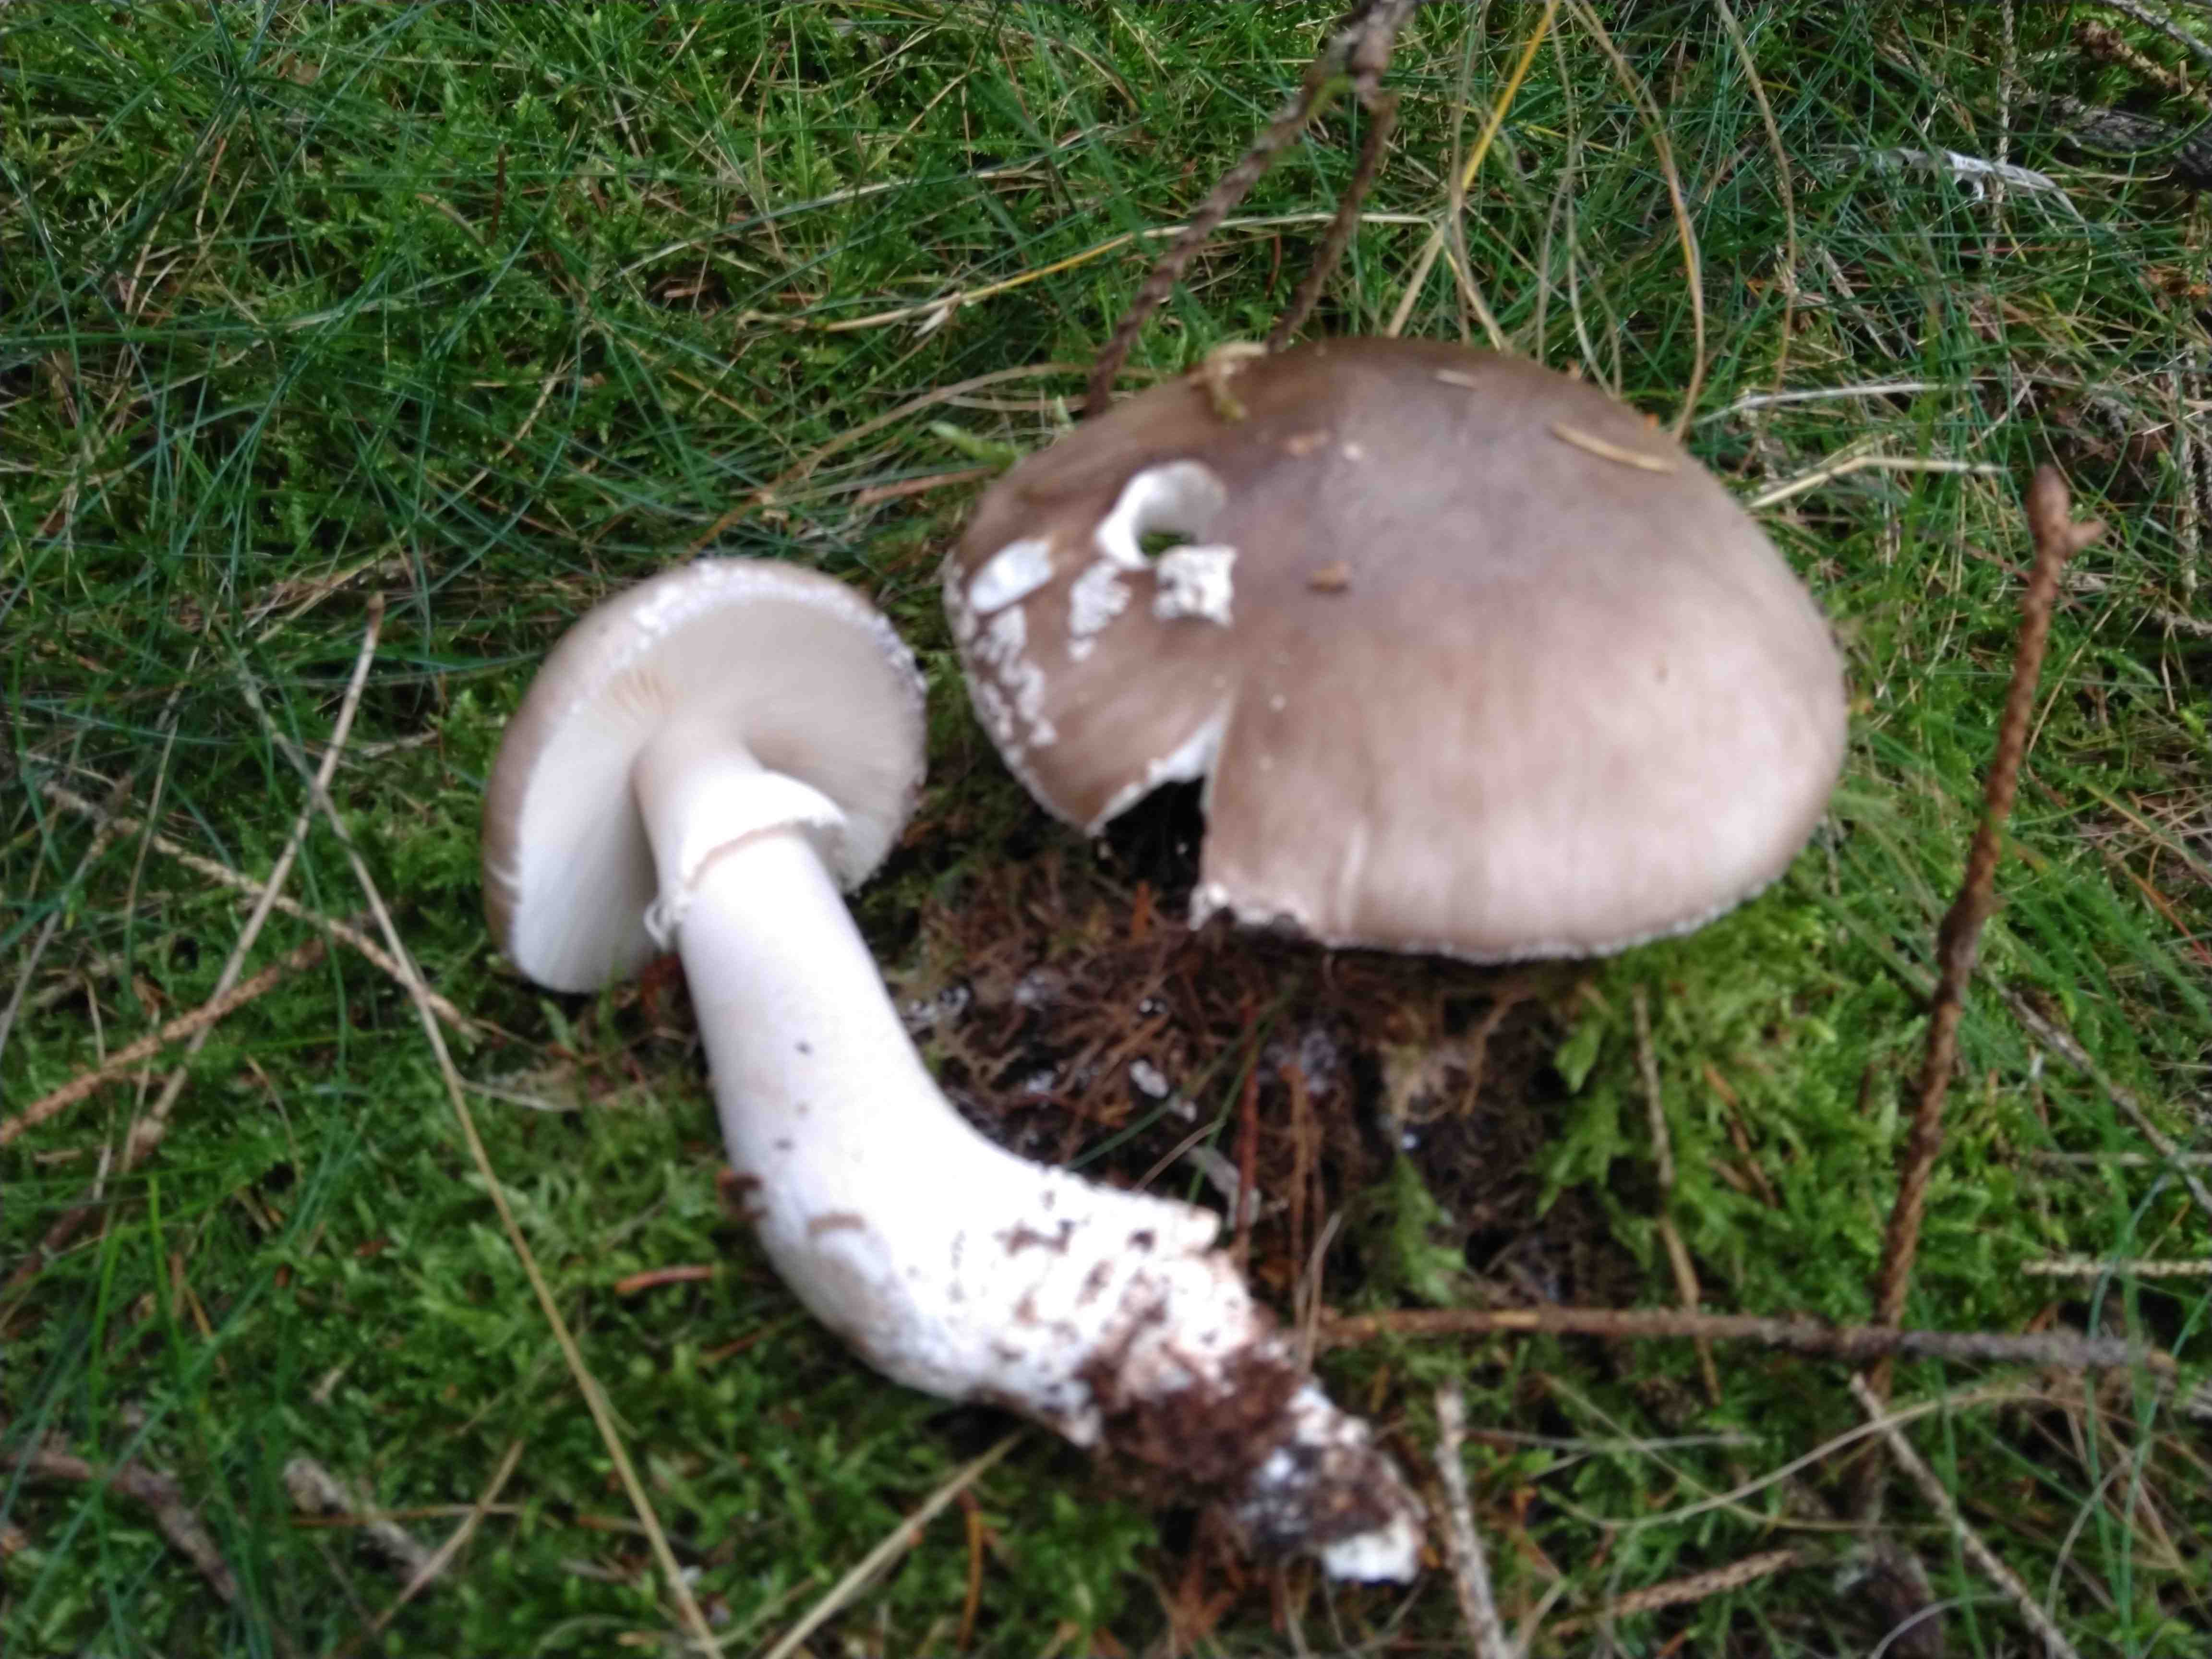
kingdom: Fungi
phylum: Basidiomycota
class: Agaricomycetes
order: Agaricales
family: Amanitaceae
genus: Amanita
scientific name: Amanita
